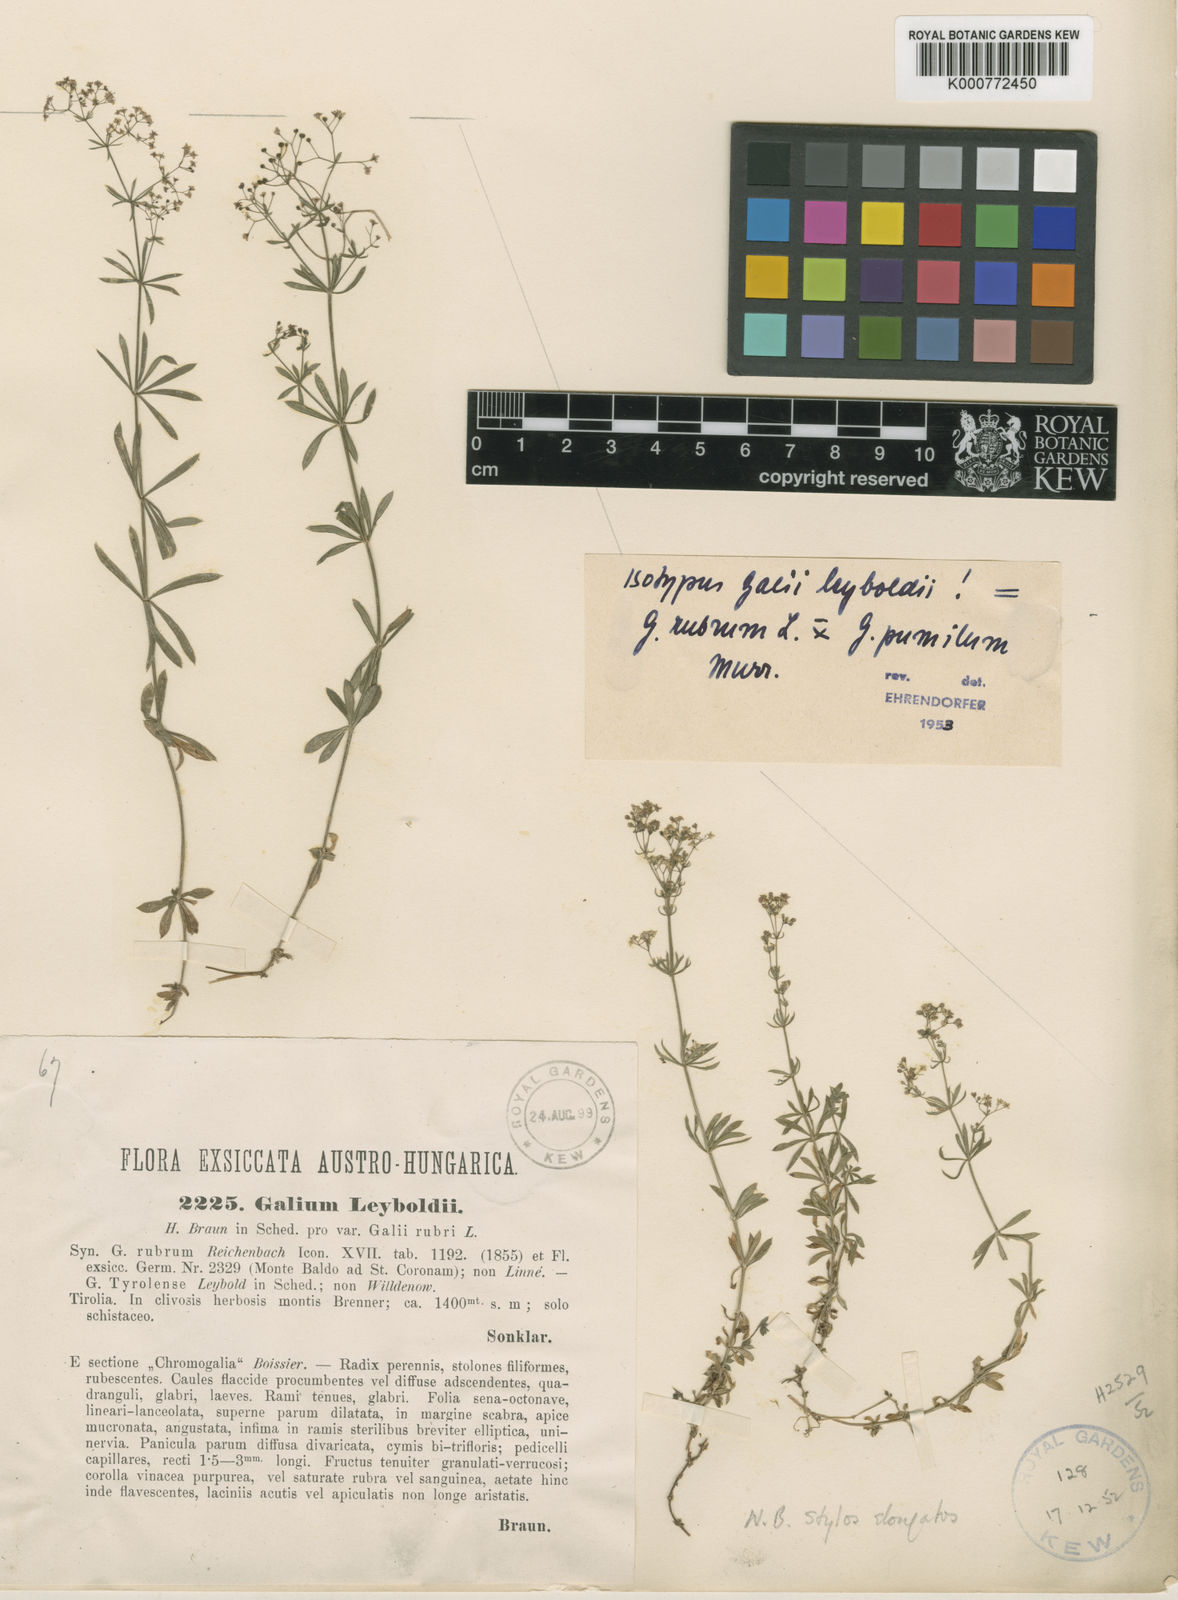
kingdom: Plantae
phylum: Tracheophyta
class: Magnoliopsida
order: Gentianales
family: Rubiaceae
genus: Galium
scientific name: Galium centroniae
